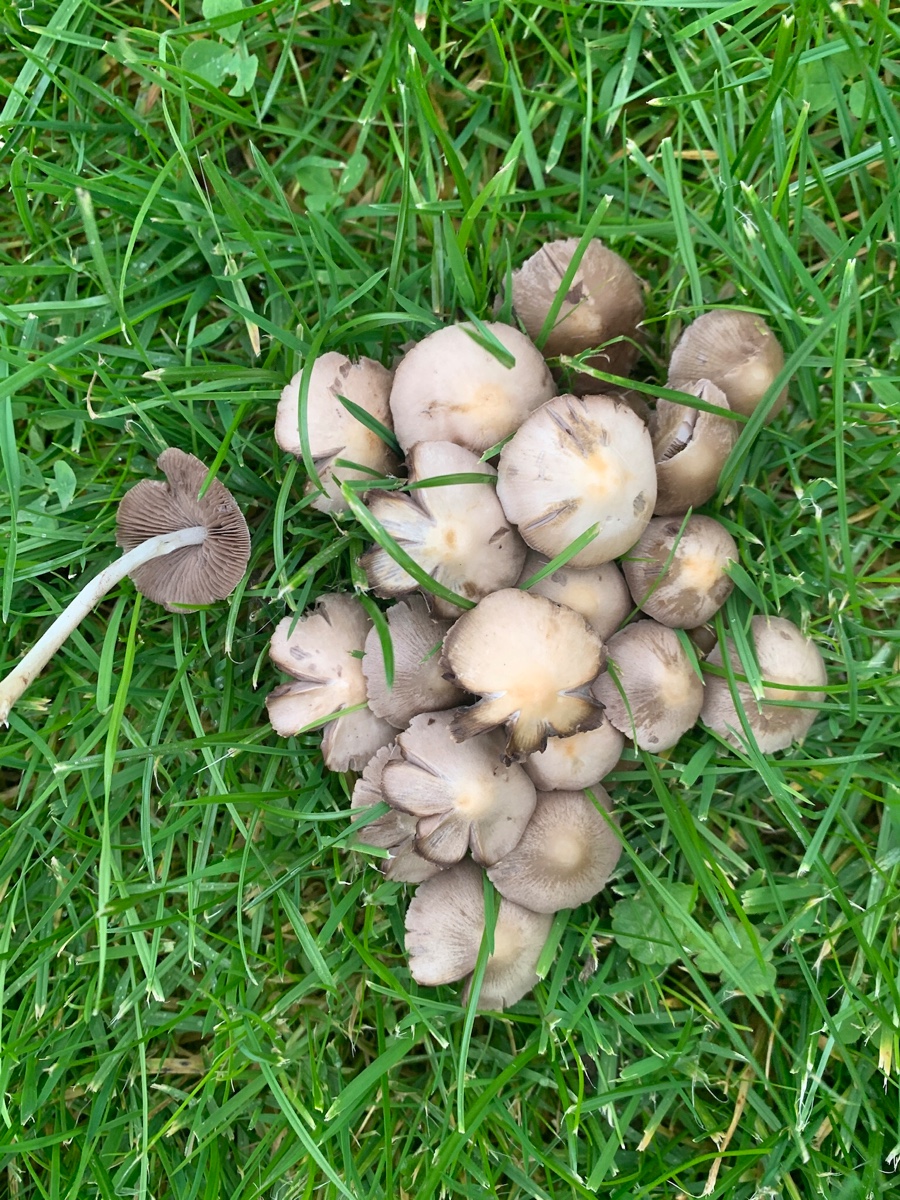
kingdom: Fungi
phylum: Basidiomycota
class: Agaricomycetes
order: Agaricales
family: Psathyrellaceae
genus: Britzelmayria
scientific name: Britzelmayria multipedata
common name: knippe-mørkhat
